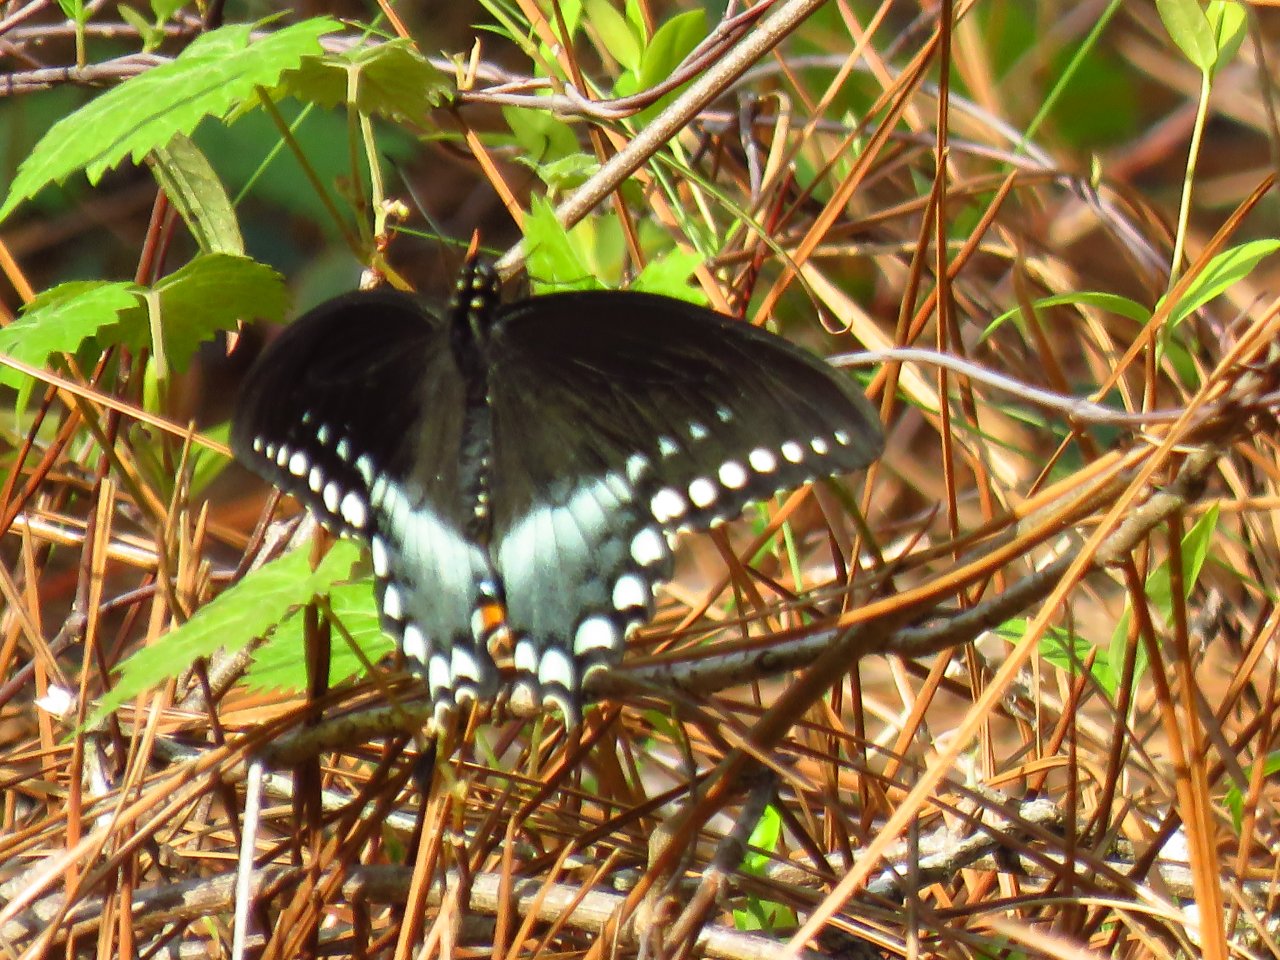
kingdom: Animalia
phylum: Arthropoda
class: Insecta
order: Lepidoptera
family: Papilionidae
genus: Pterourus
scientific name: Pterourus troilus
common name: Spicebush Swallowtail
